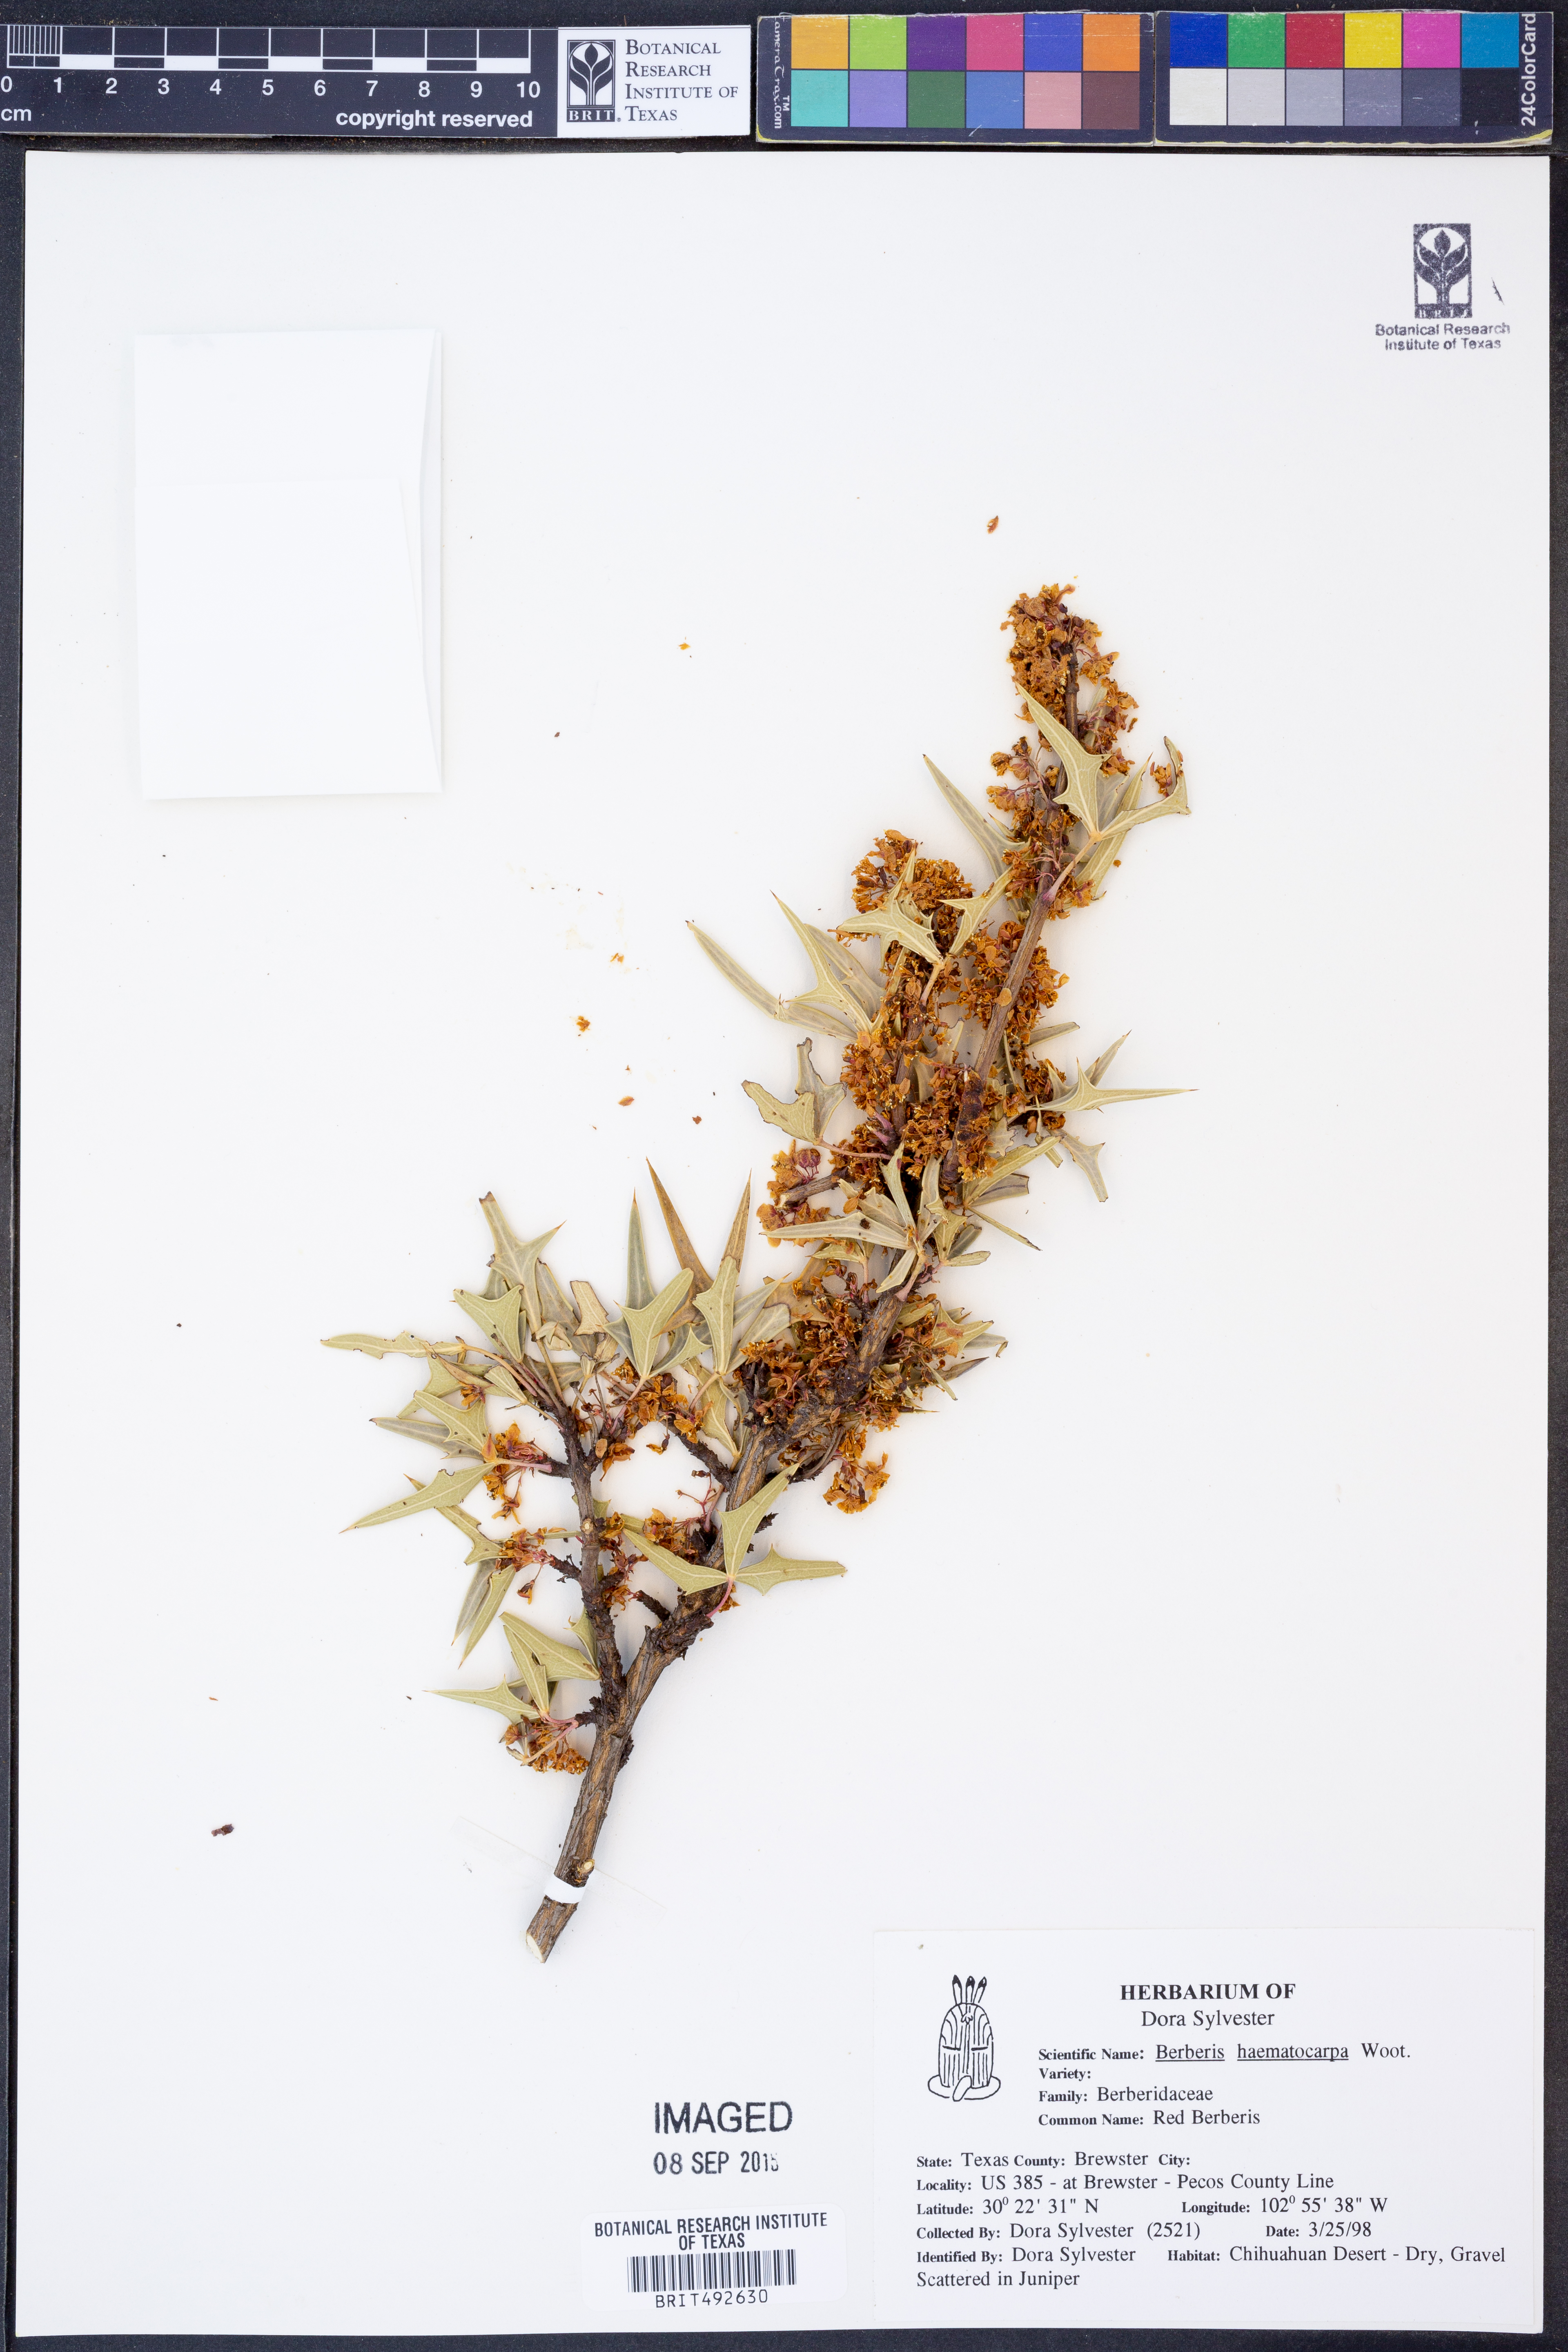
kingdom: Plantae
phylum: Tracheophyta
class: Magnoliopsida
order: Ranunculales
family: Berberidaceae
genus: Alloberberis
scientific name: Alloberberis haematocarpa
